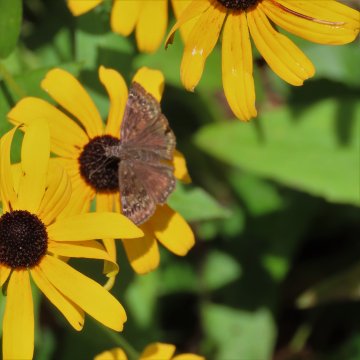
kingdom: Animalia
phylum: Arthropoda
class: Insecta
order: Lepidoptera
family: Hesperiidae
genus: Gesta
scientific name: Gesta
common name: Wild Indigo Duskywing
